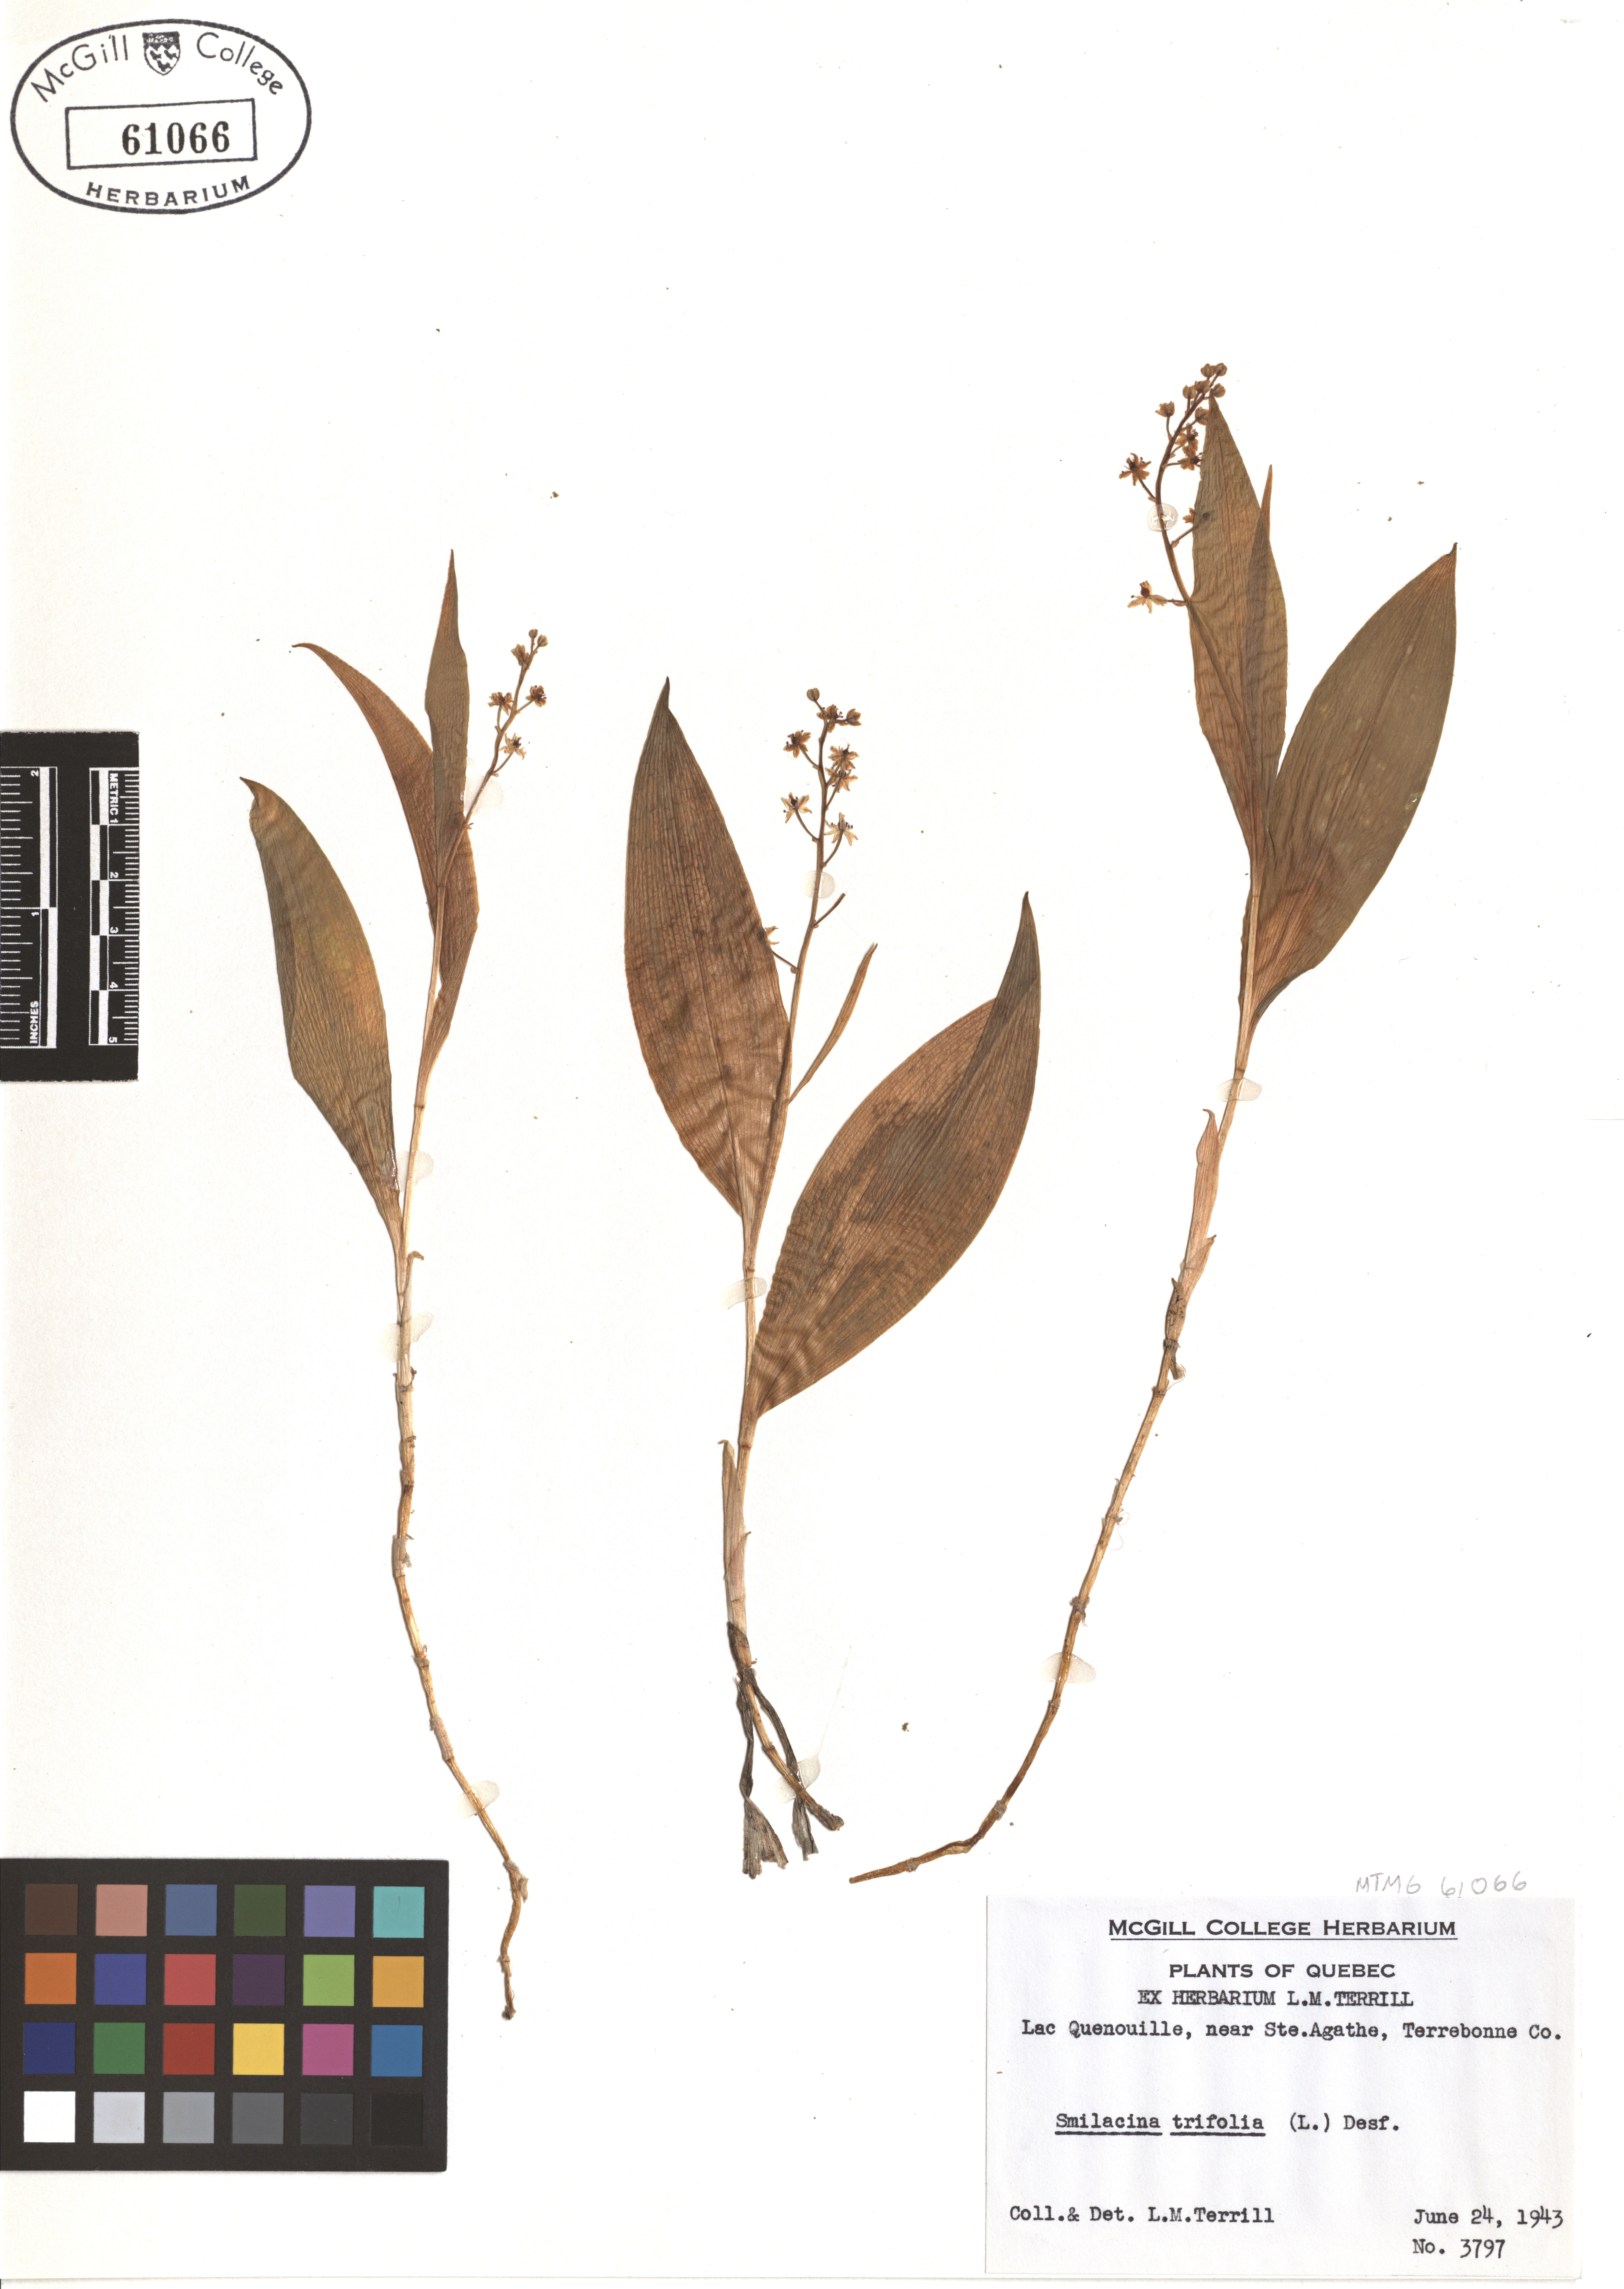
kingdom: Plantae
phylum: Tracheophyta
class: Liliopsida
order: Asparagales
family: Asparagaceae
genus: Maianthemum
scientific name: Maianthemum trifolium
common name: Swamp false solomon's seal
